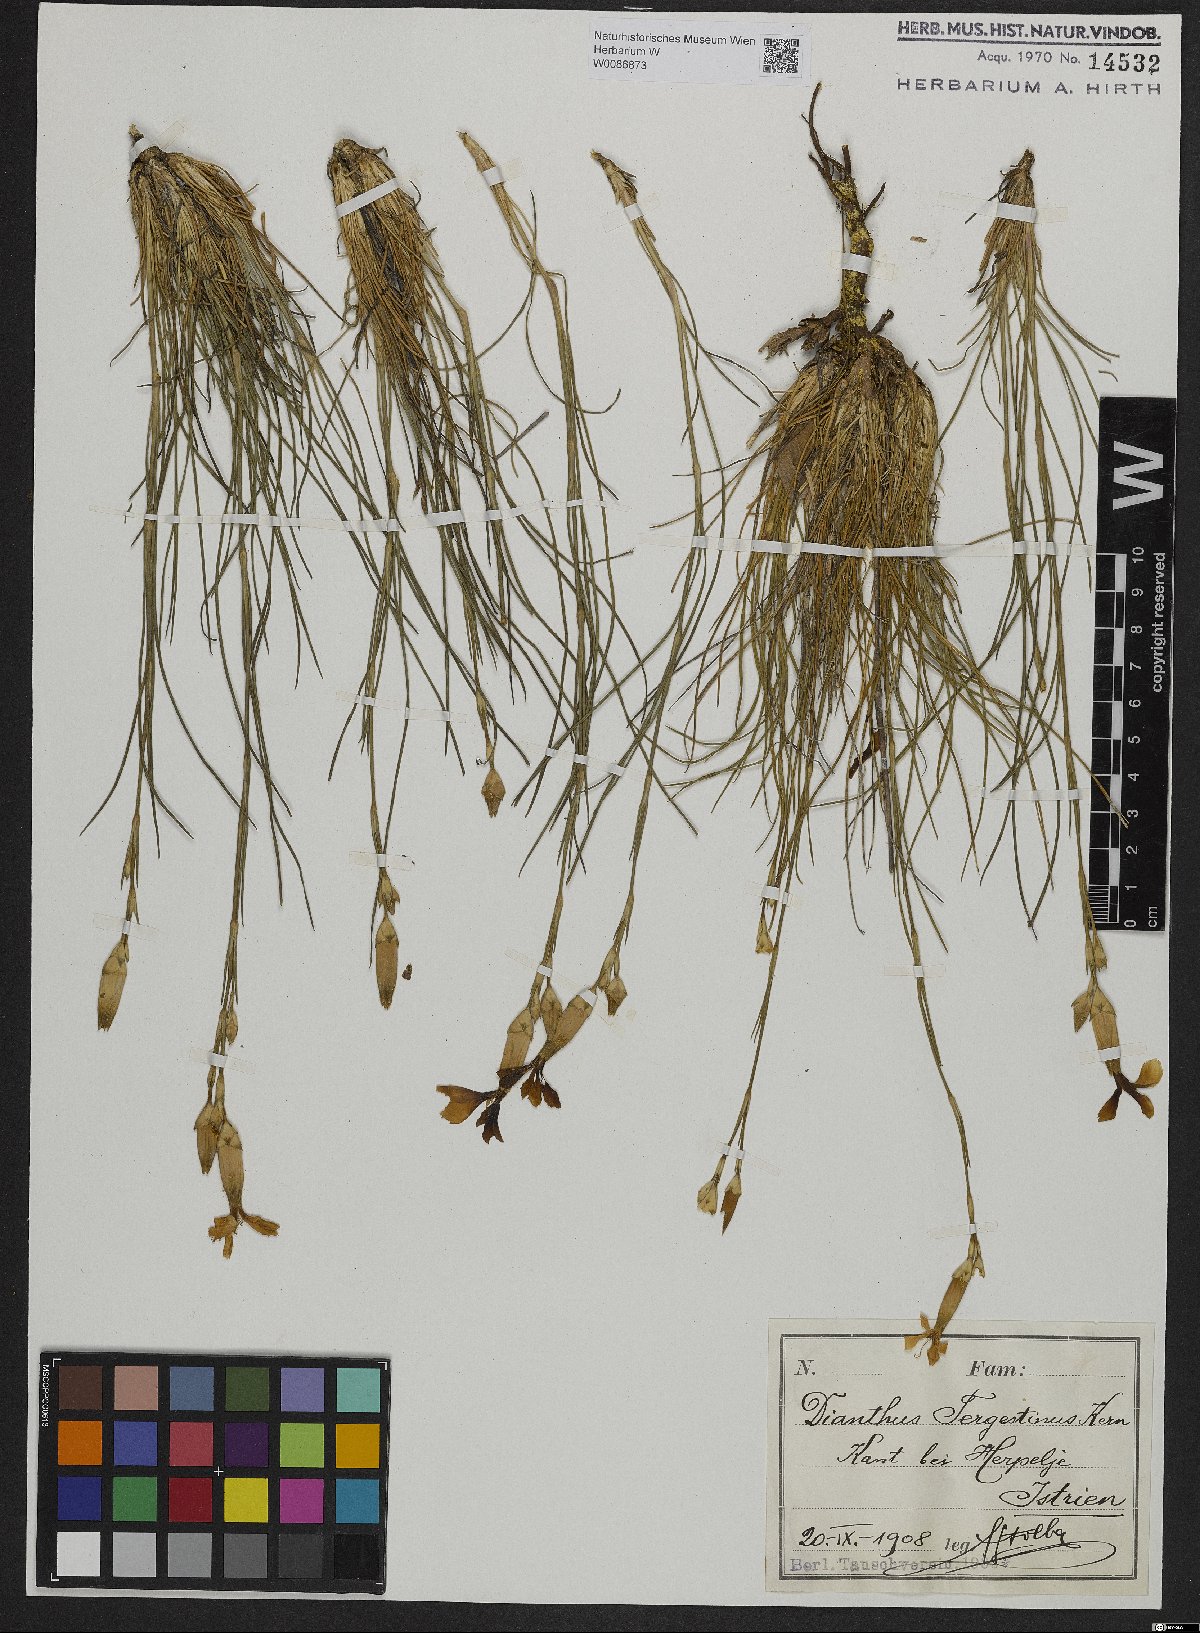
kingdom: Plantae
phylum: Tracheophyta
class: Magnoliopsida
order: Caryophyllales
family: Caryophyllaceae
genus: Dianthus
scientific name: Dianthus sylvestris
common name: Wood pink
